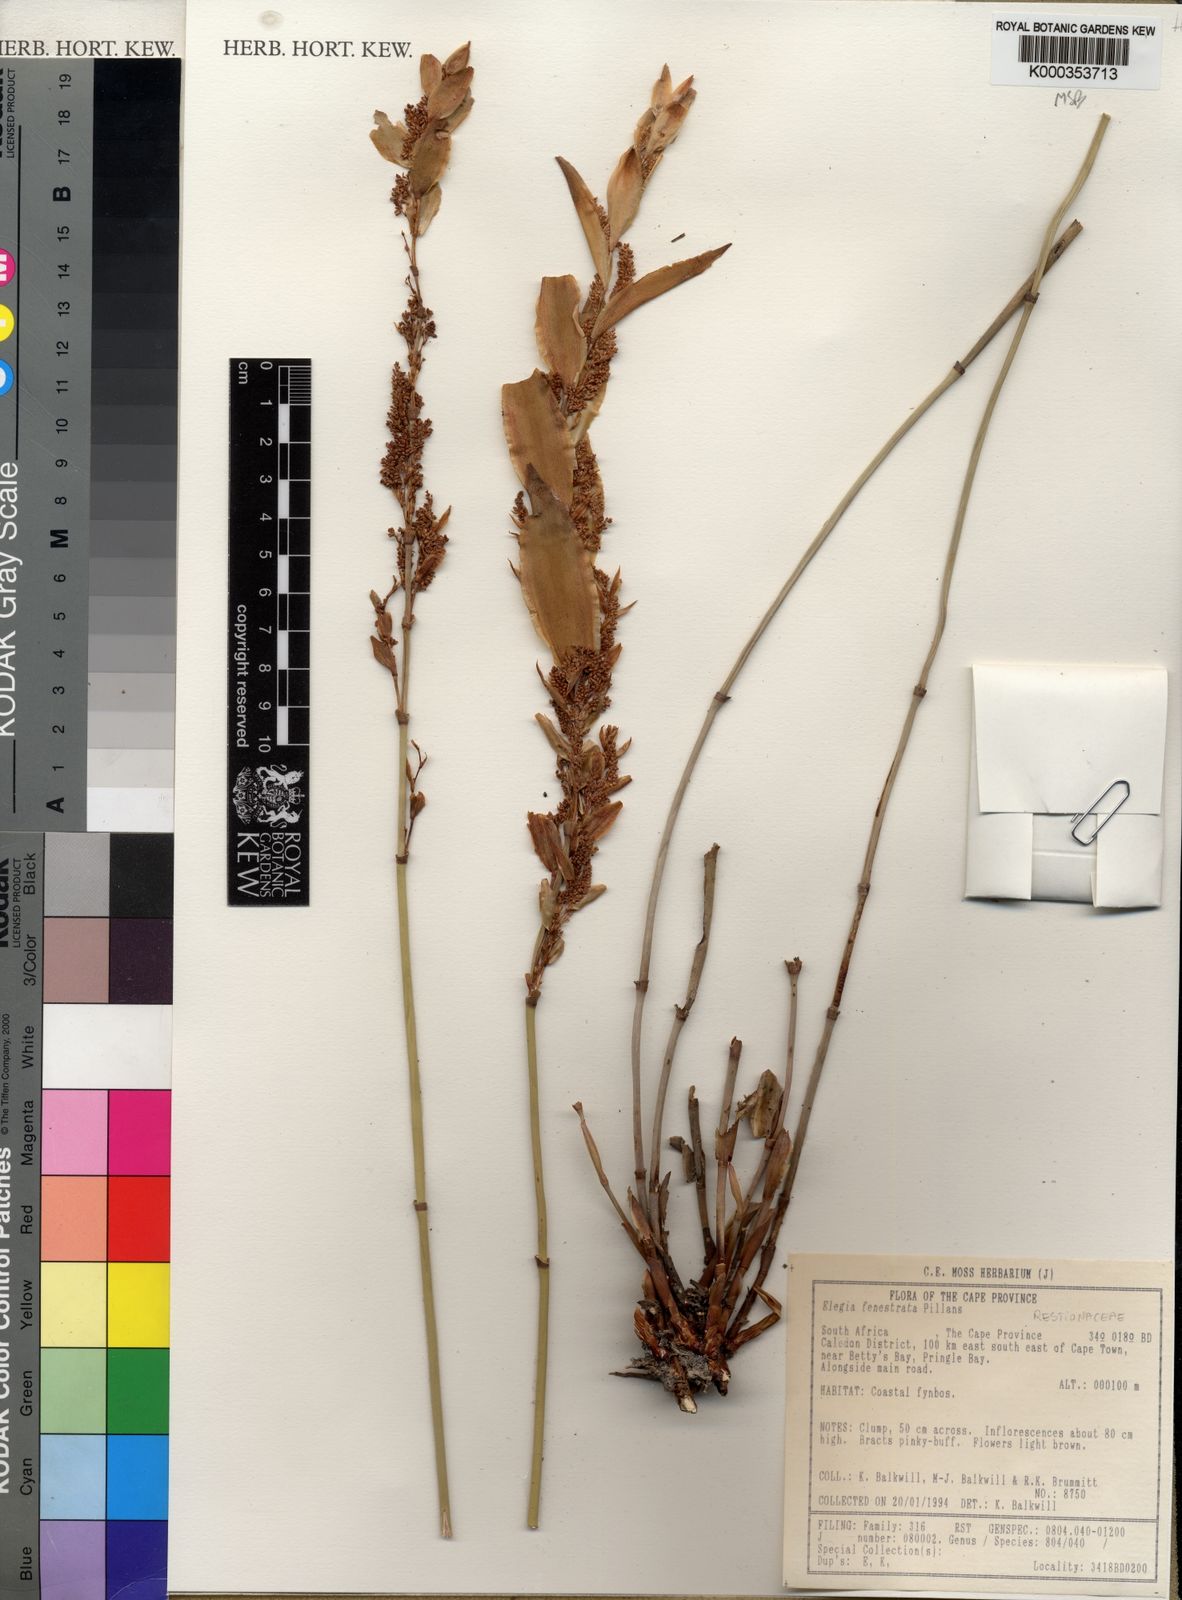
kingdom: Plantae
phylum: Tracheophyta
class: Liliopsida
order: Poales
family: Restionaceae
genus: Elegia
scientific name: Elegia fenestrata
